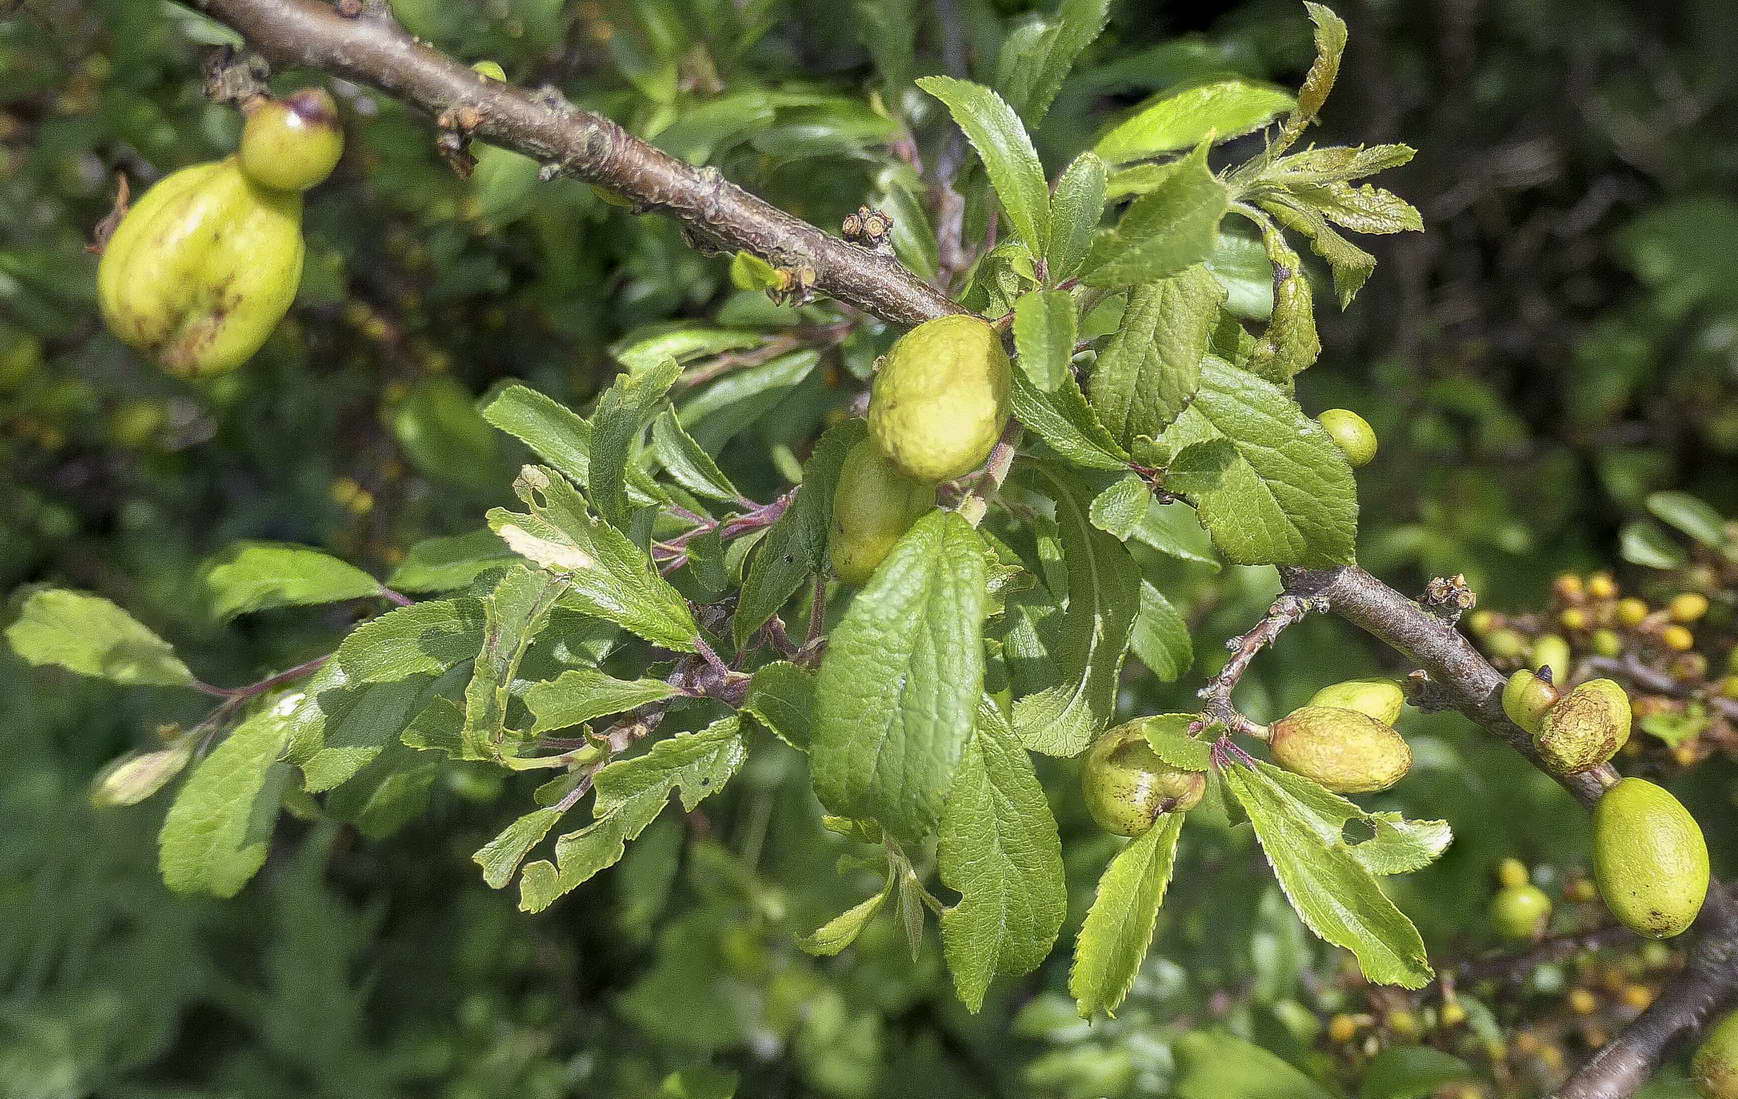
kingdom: Fungi
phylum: Ascomycota
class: Taphrinomycetes
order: Taphrinales
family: Taphrinaceae
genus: Taphrina
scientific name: Taphrina pruni
